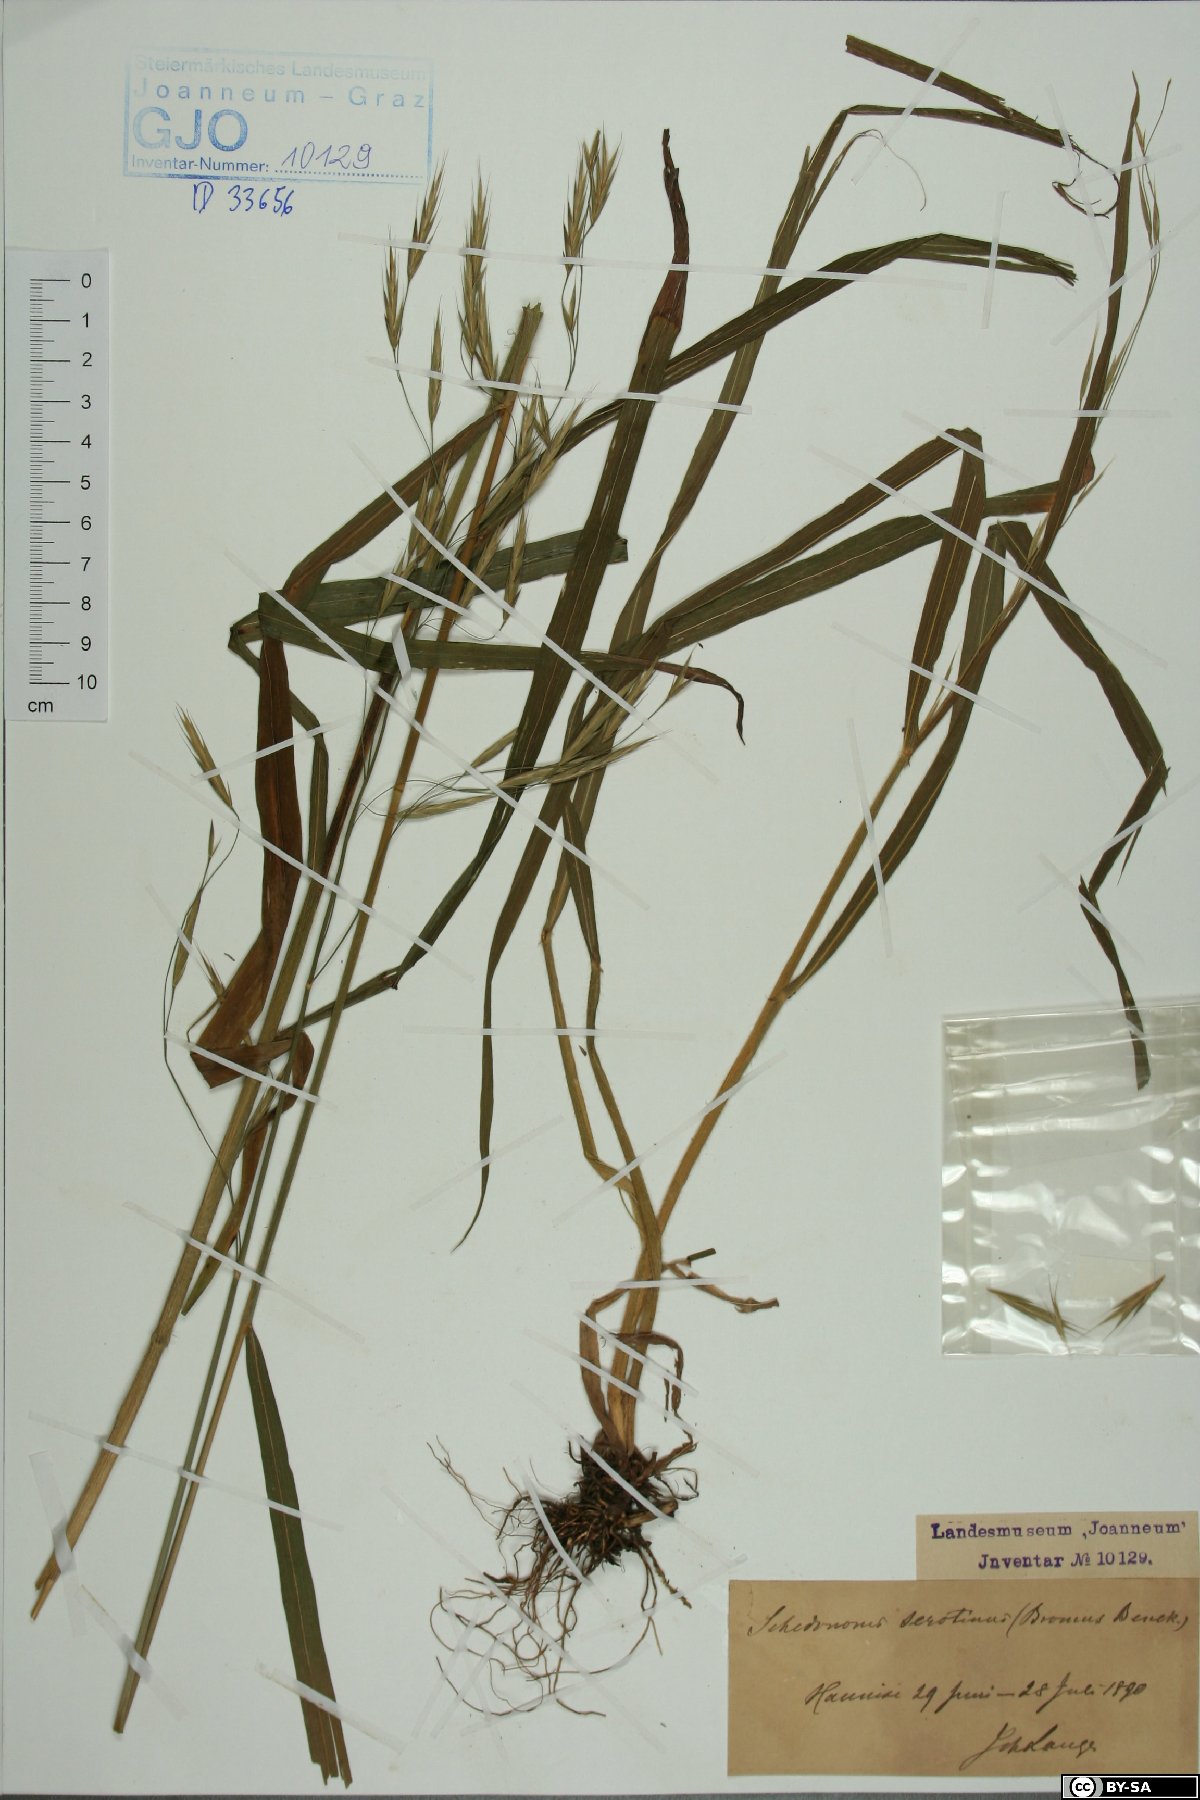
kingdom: Plantae
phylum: Tracheophyta
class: Liliopsida
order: Poales
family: Poaceae
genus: Bromus
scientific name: Bromus ramosus
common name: Hairy brome
